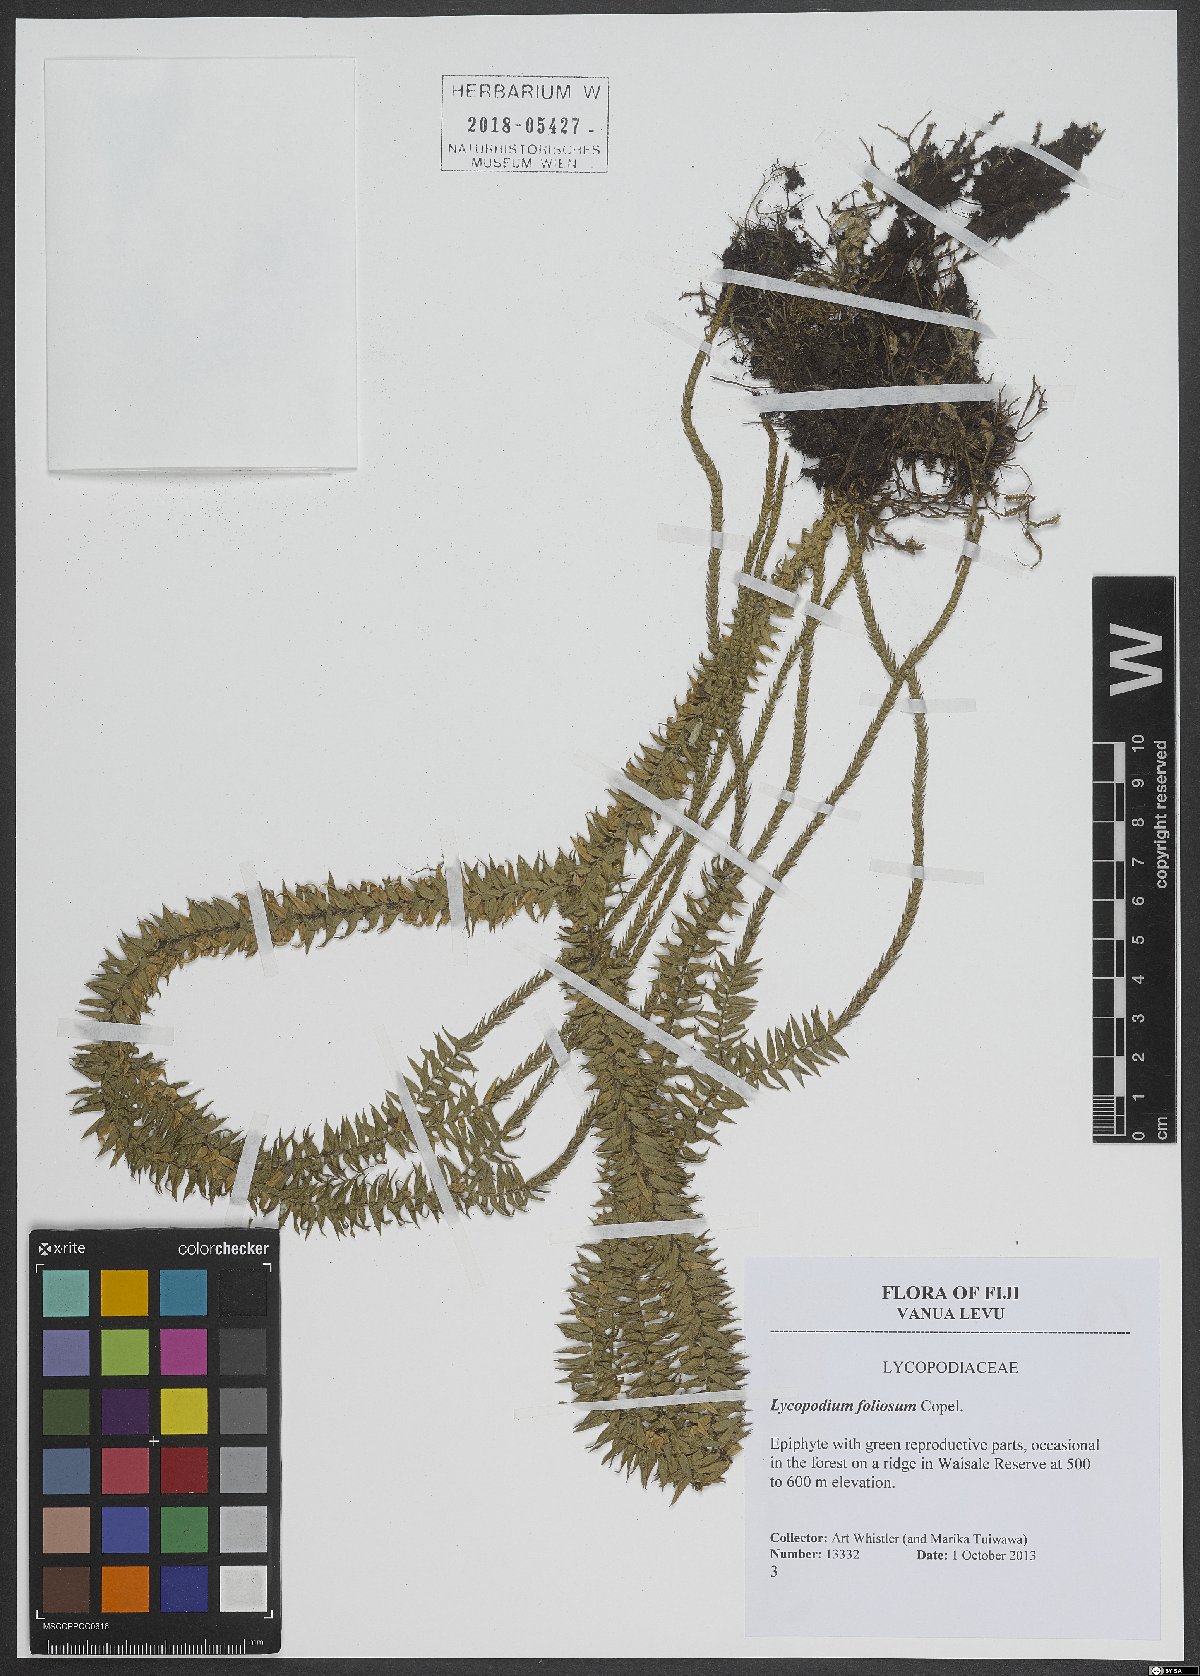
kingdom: Plantae
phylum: Tracheophyta
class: Lycopodiopsida
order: Lycopodiales
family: Lycopodiaceae
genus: Phlegmariurus
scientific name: Phlegmariurus foliosus
